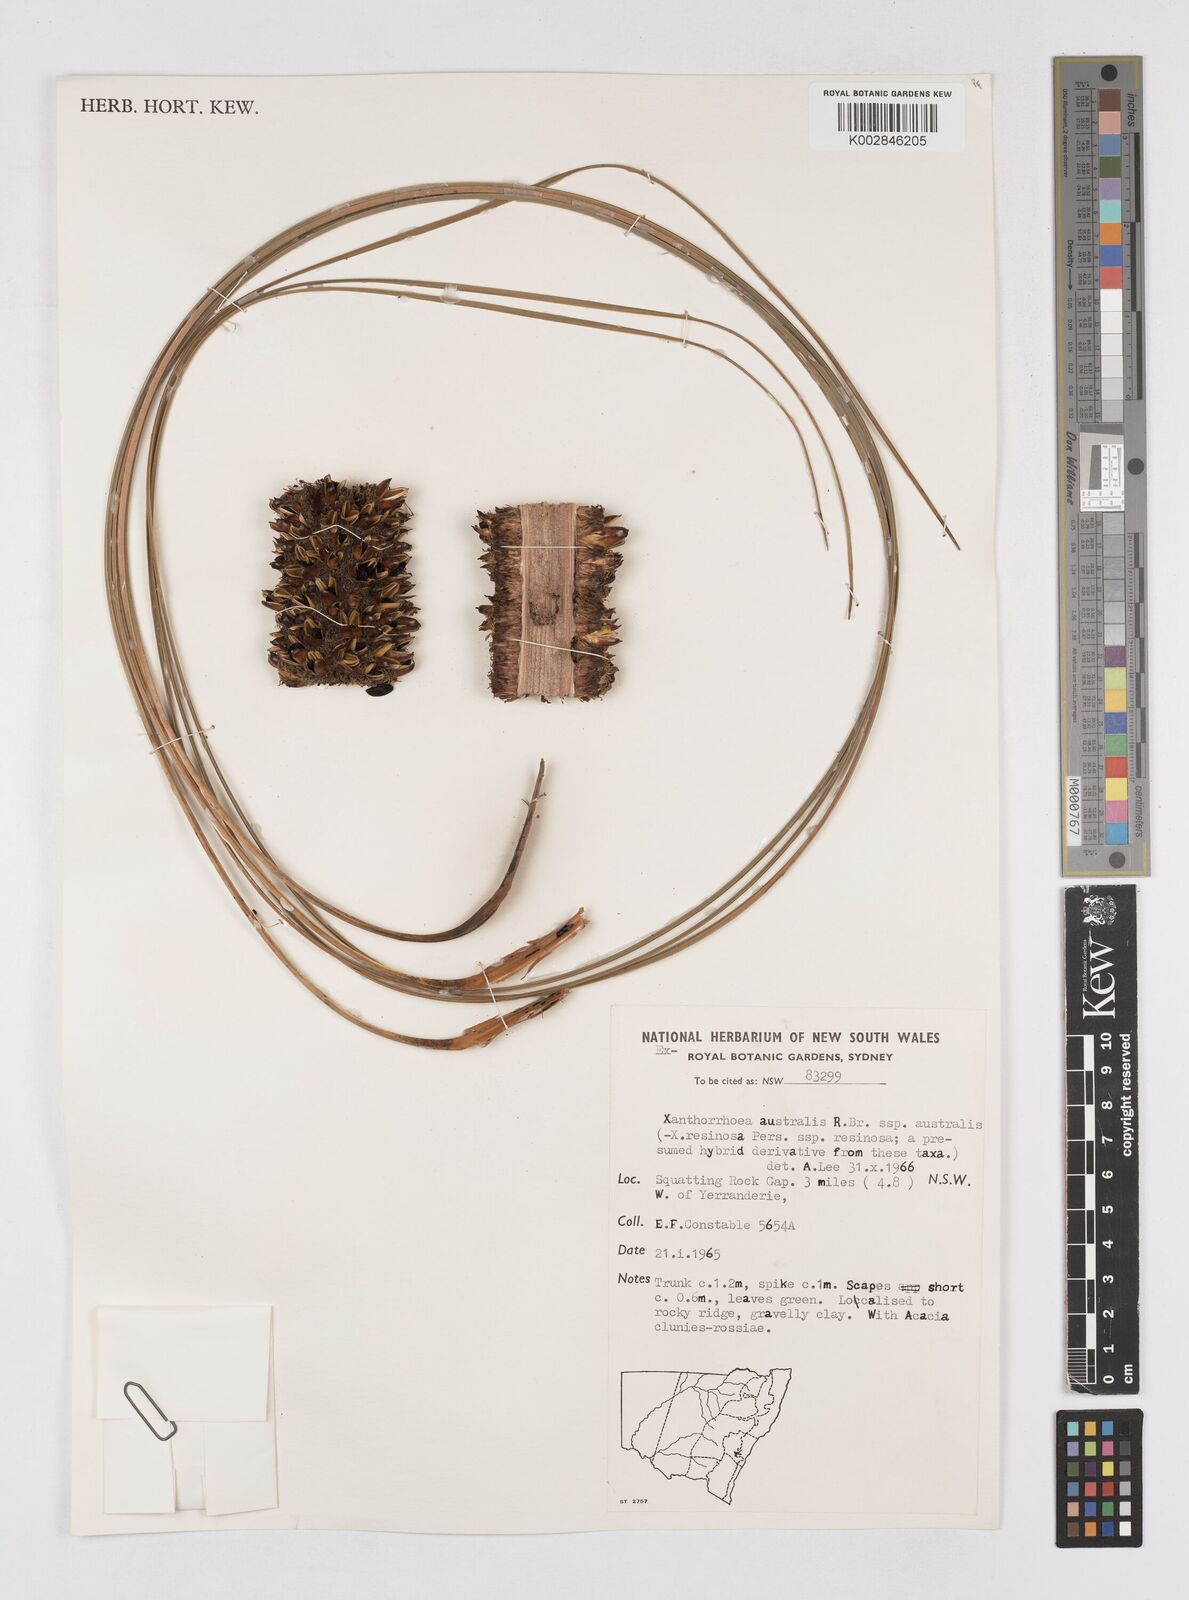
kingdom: Plantae
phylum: Tracheophyta
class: Liliopsida
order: Asparagales
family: Asphodelaceae
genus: Xanthorrhoea
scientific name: Xanthorrhoea australis
